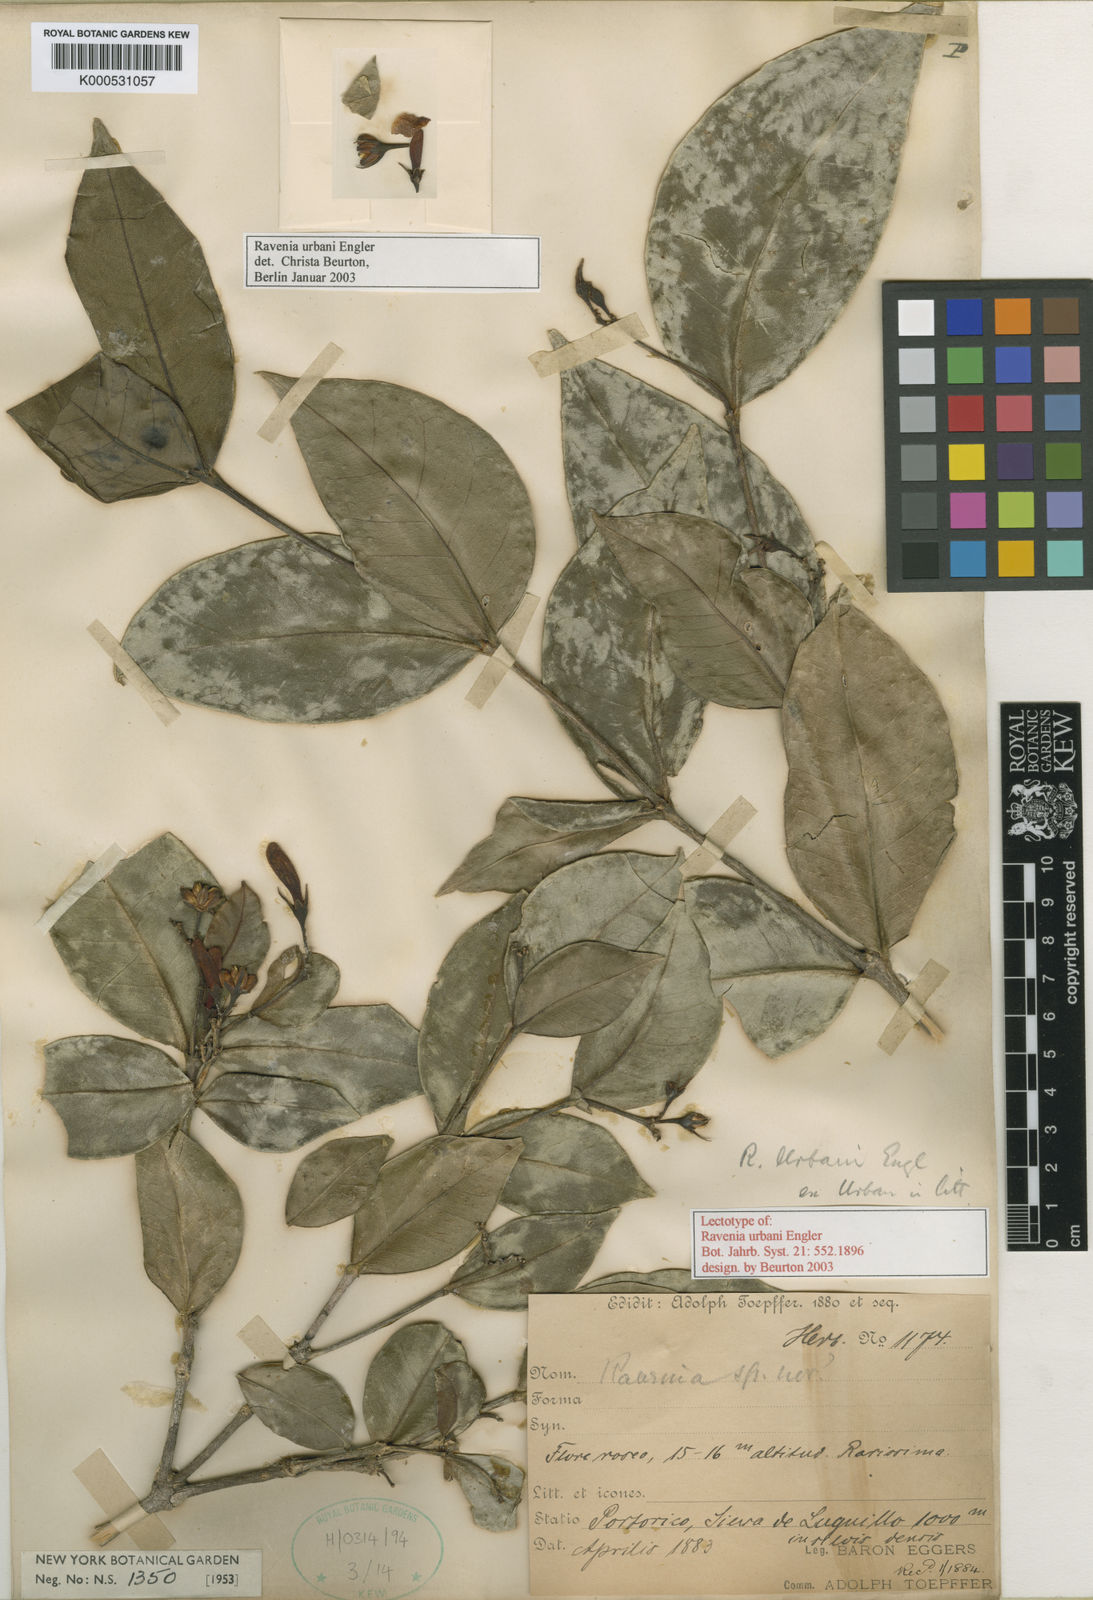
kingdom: Plantae
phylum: Tracheophyta
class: Magnoliopsida
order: Sapindales
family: Rutaceae
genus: Ravenia
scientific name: Ravenia
